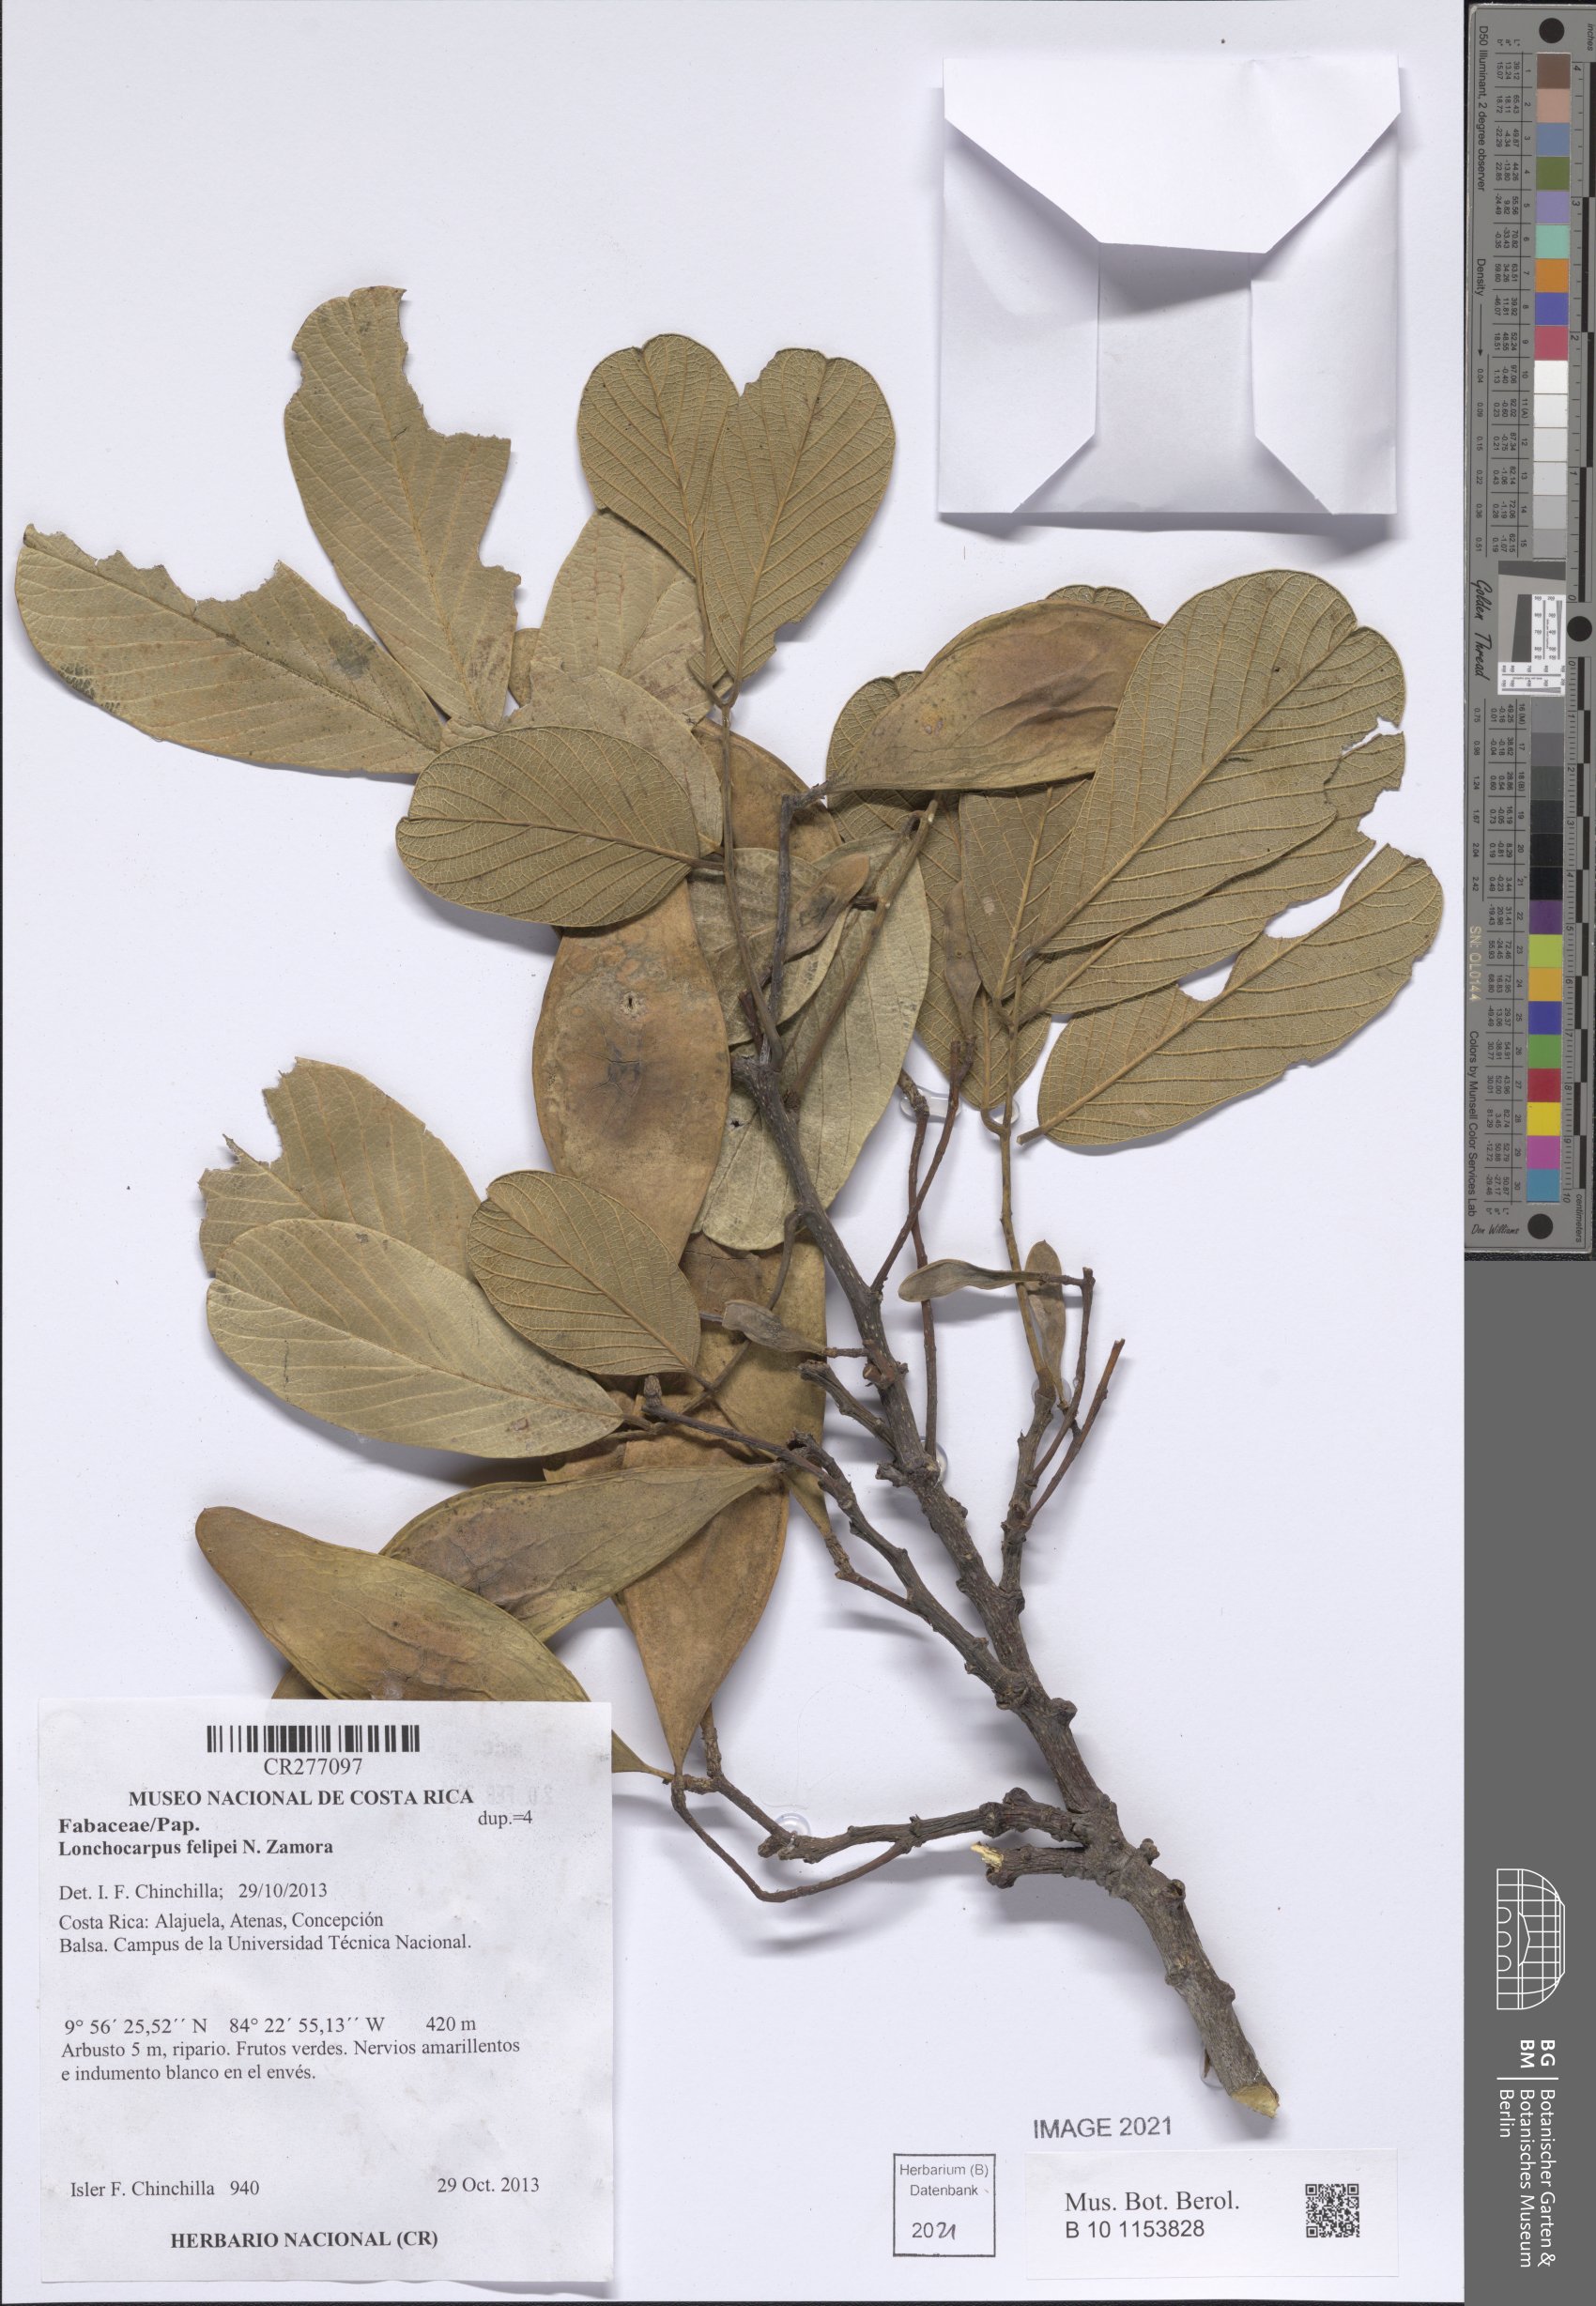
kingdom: Plantae
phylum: Tracheophyta
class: Magnoliopsida
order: Fabales
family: Fabaceae
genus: Lonchocarpus
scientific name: Lonchocarpus felipei
